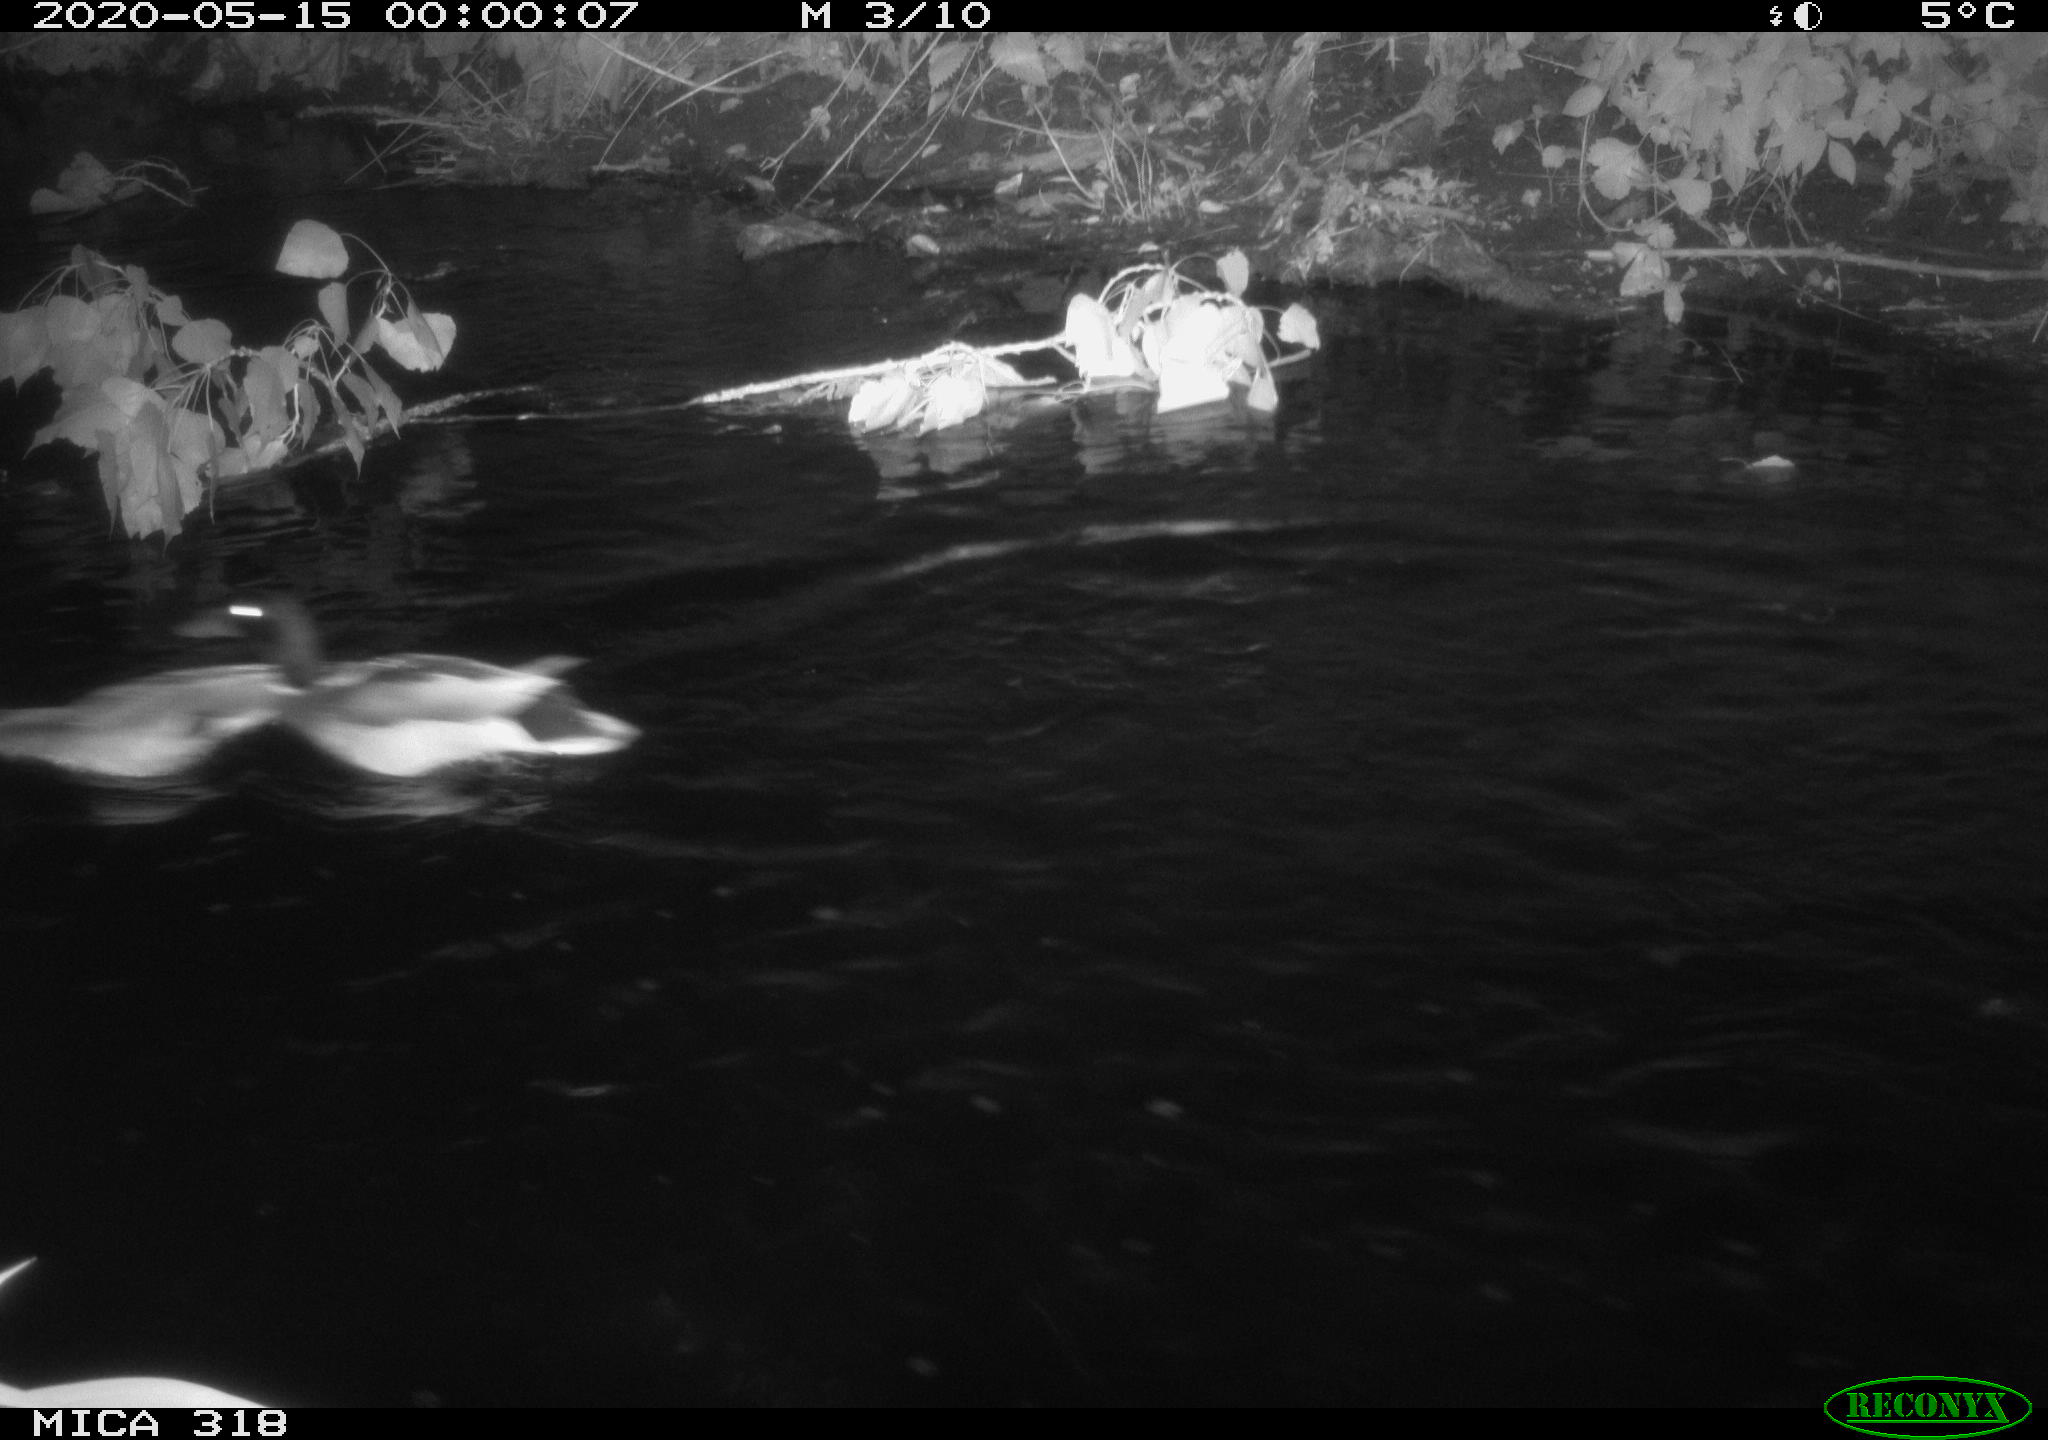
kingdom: Animalia
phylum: Chordata
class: Aves
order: Anseriformes
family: Anatidae
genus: Anas
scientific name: Anas platyrhynchos
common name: Mallard
